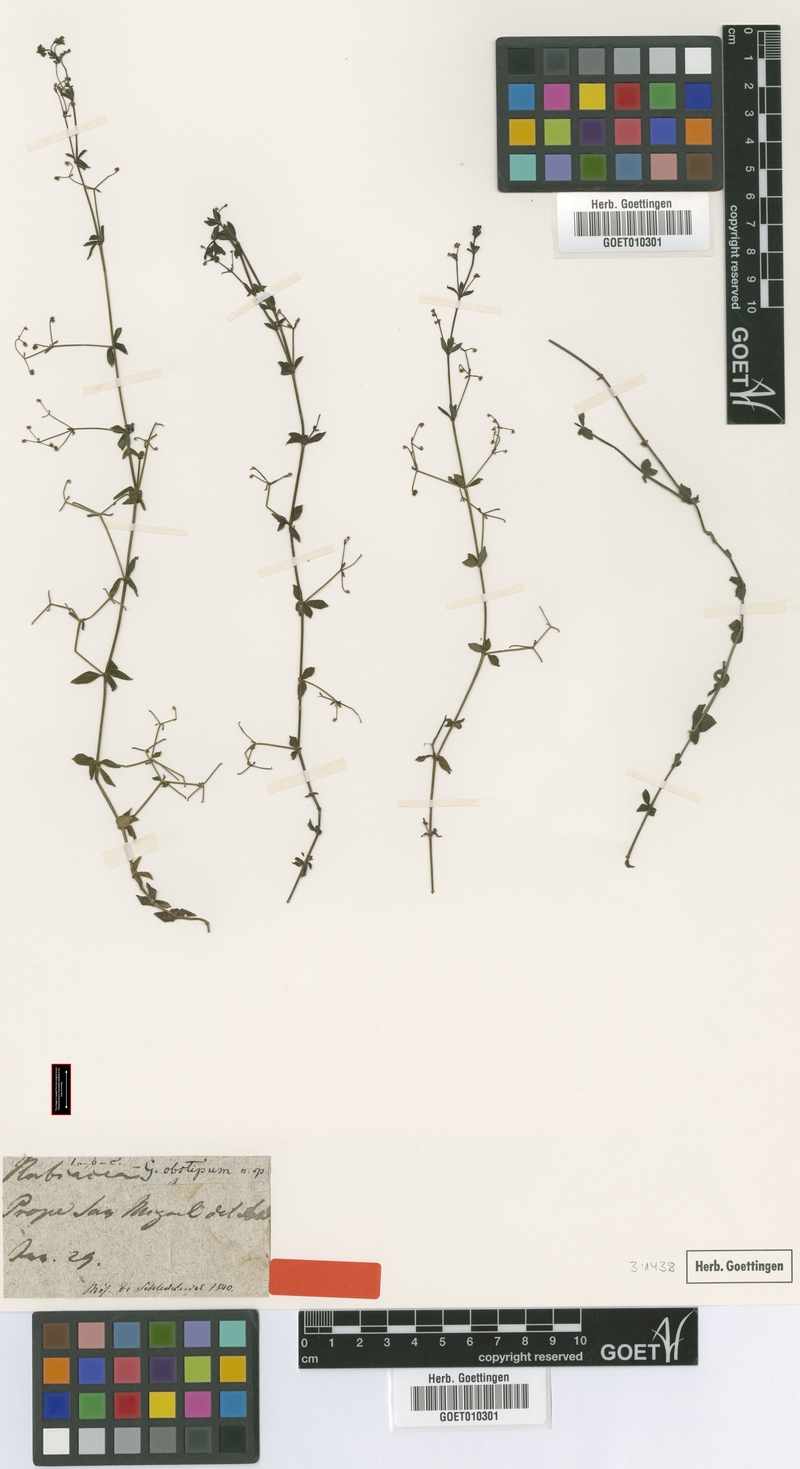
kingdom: Plantae
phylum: Tracheophyta
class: Magnoliopsida
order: Gentianales
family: Rubiaceae
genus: Galium
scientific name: Galium uncinulatum
